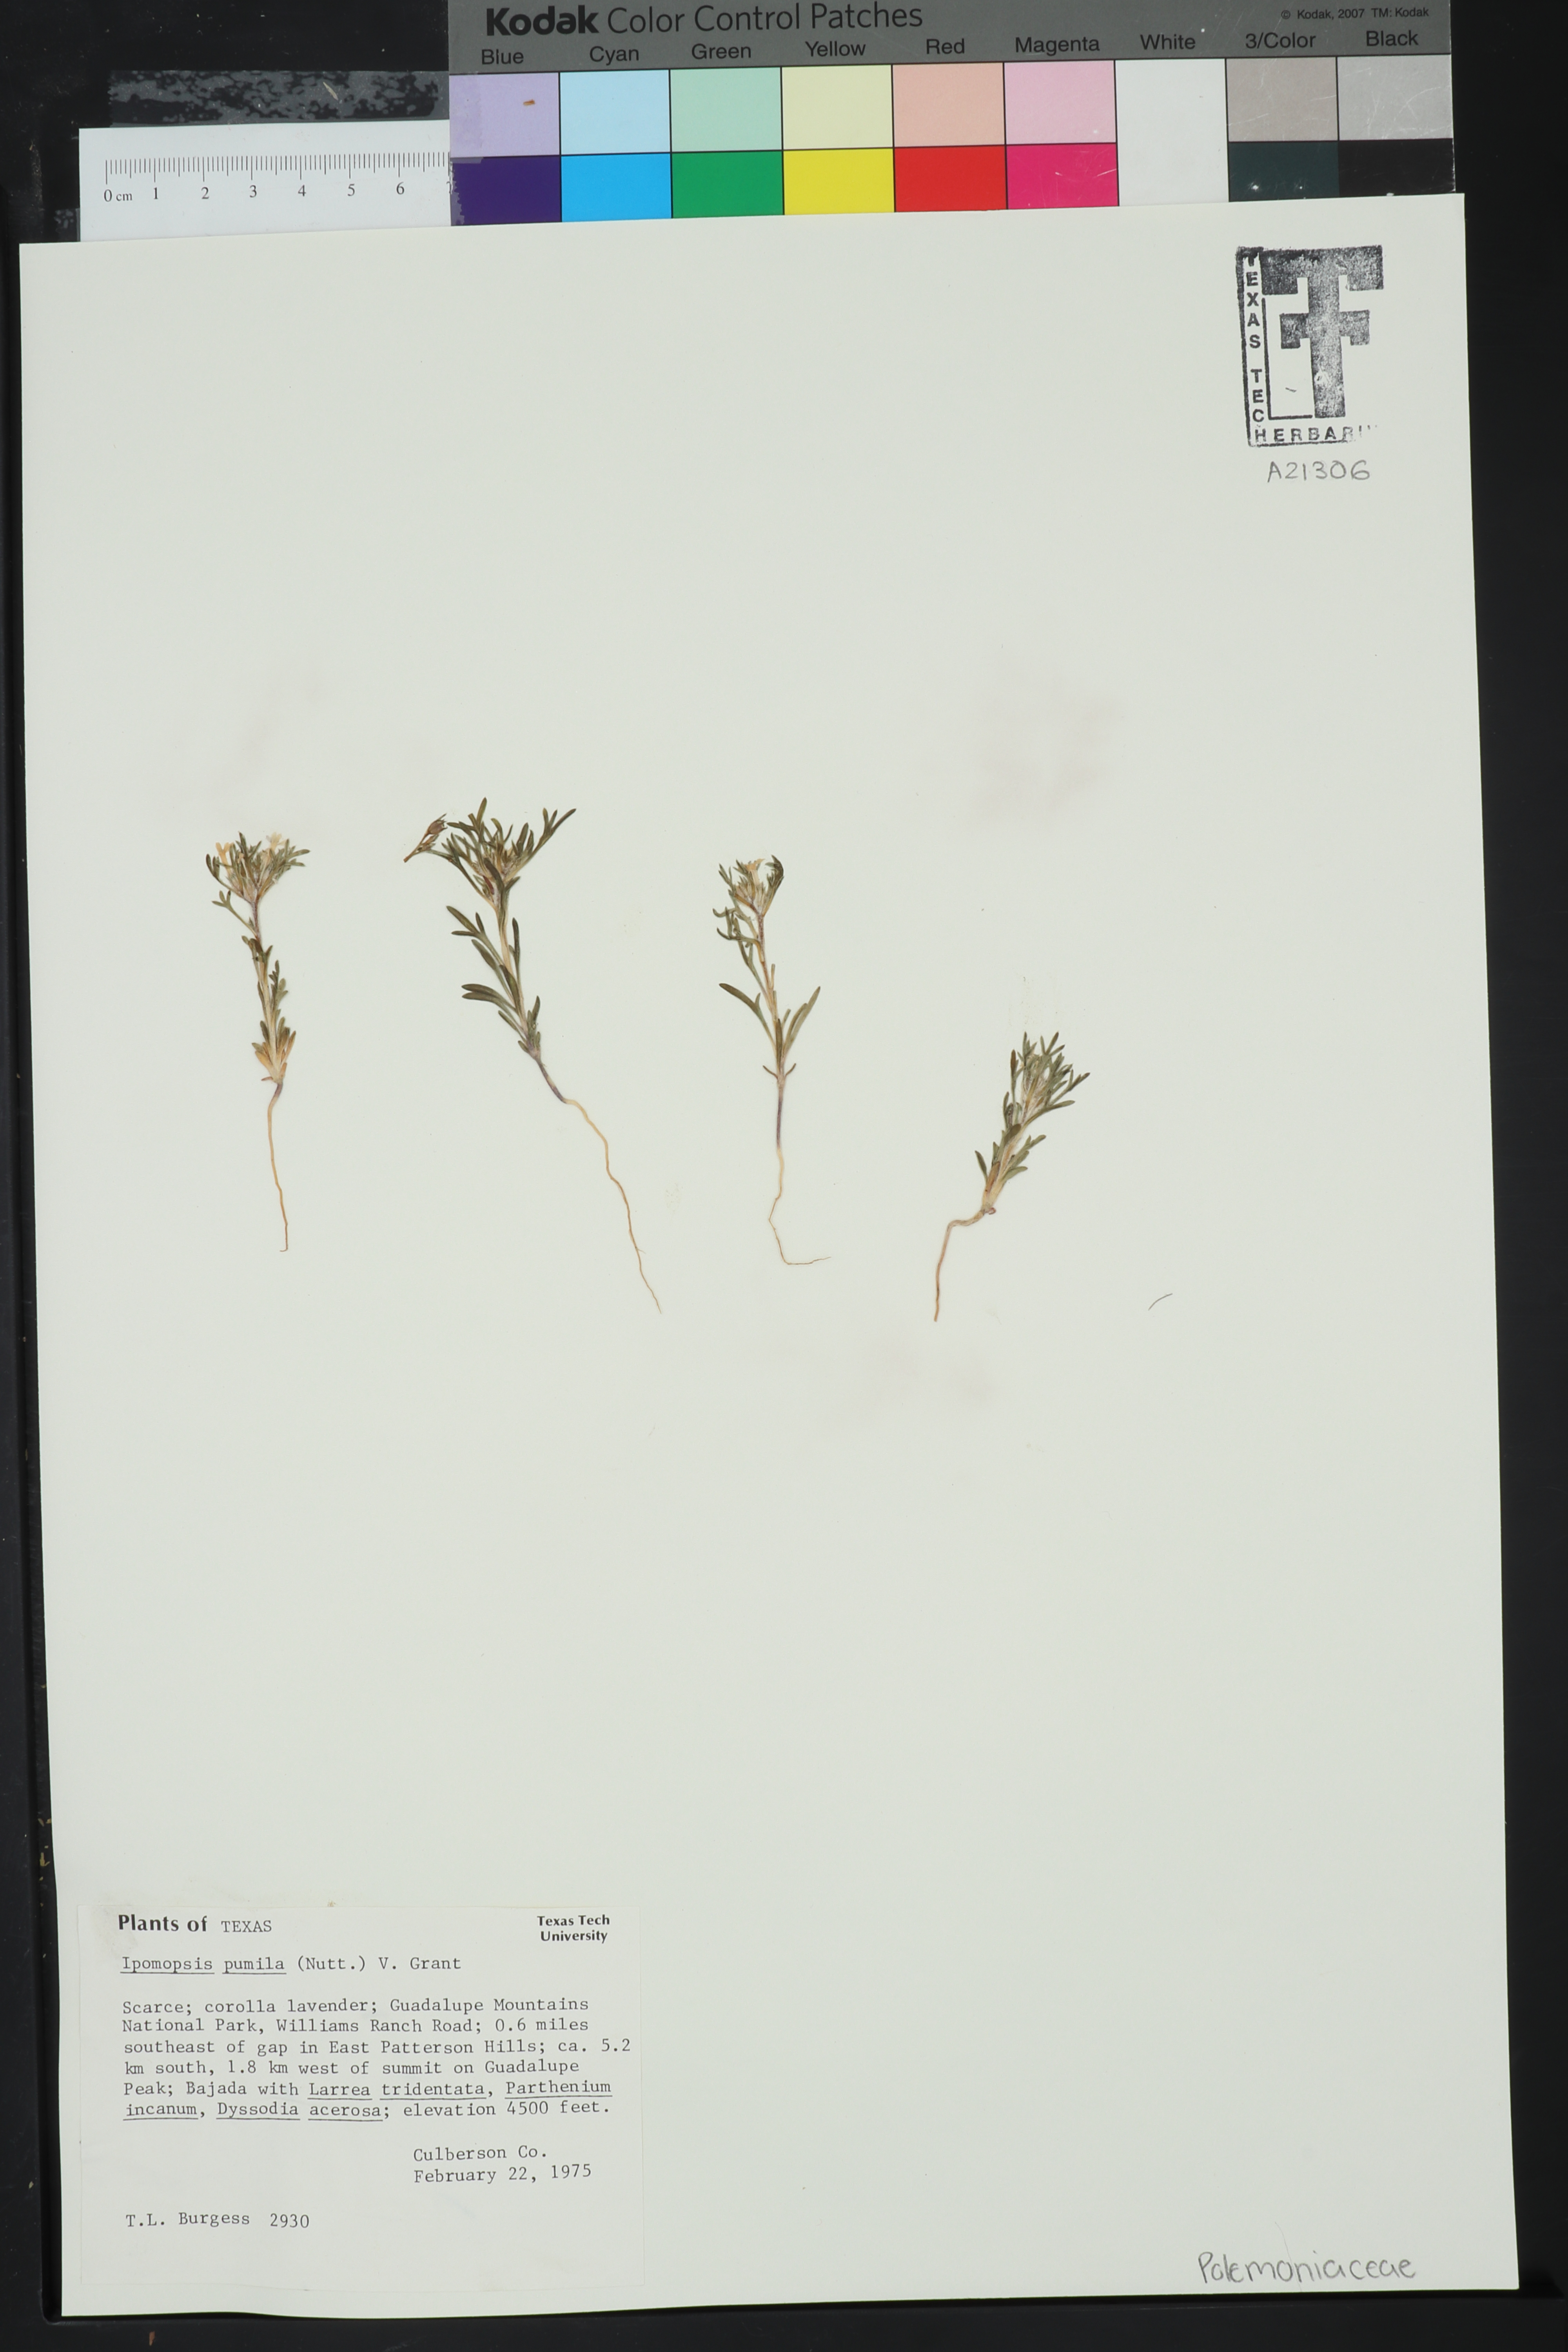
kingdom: Plantae
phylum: Tracheophyta
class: Magnoliopsida
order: Ericales
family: Polemoniaceae
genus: Ipomopsis
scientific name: Ipomopsis pumila
